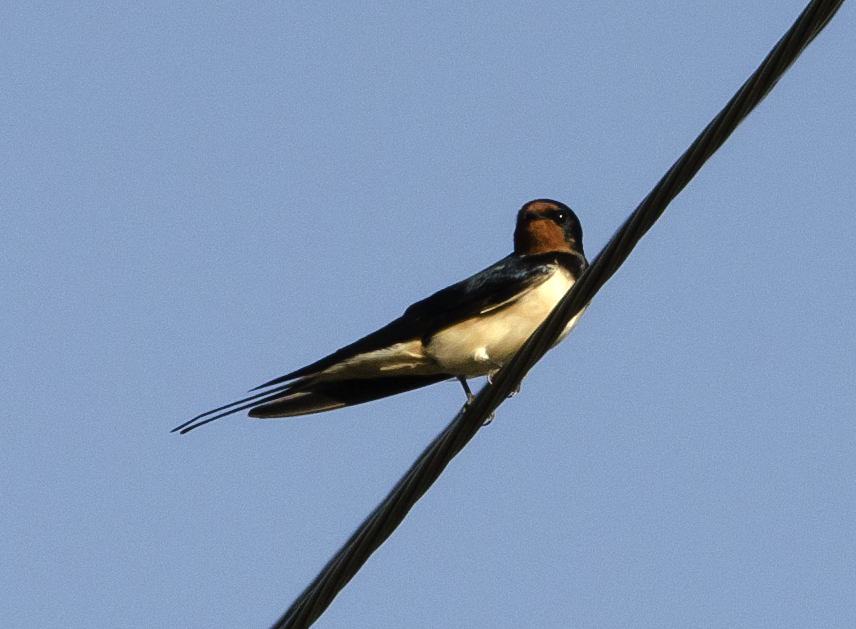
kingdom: Animalia
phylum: Chordata
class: Aves
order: Passeriformes
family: Hirundinidae
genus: Hirundo
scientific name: Hirundo rustica
